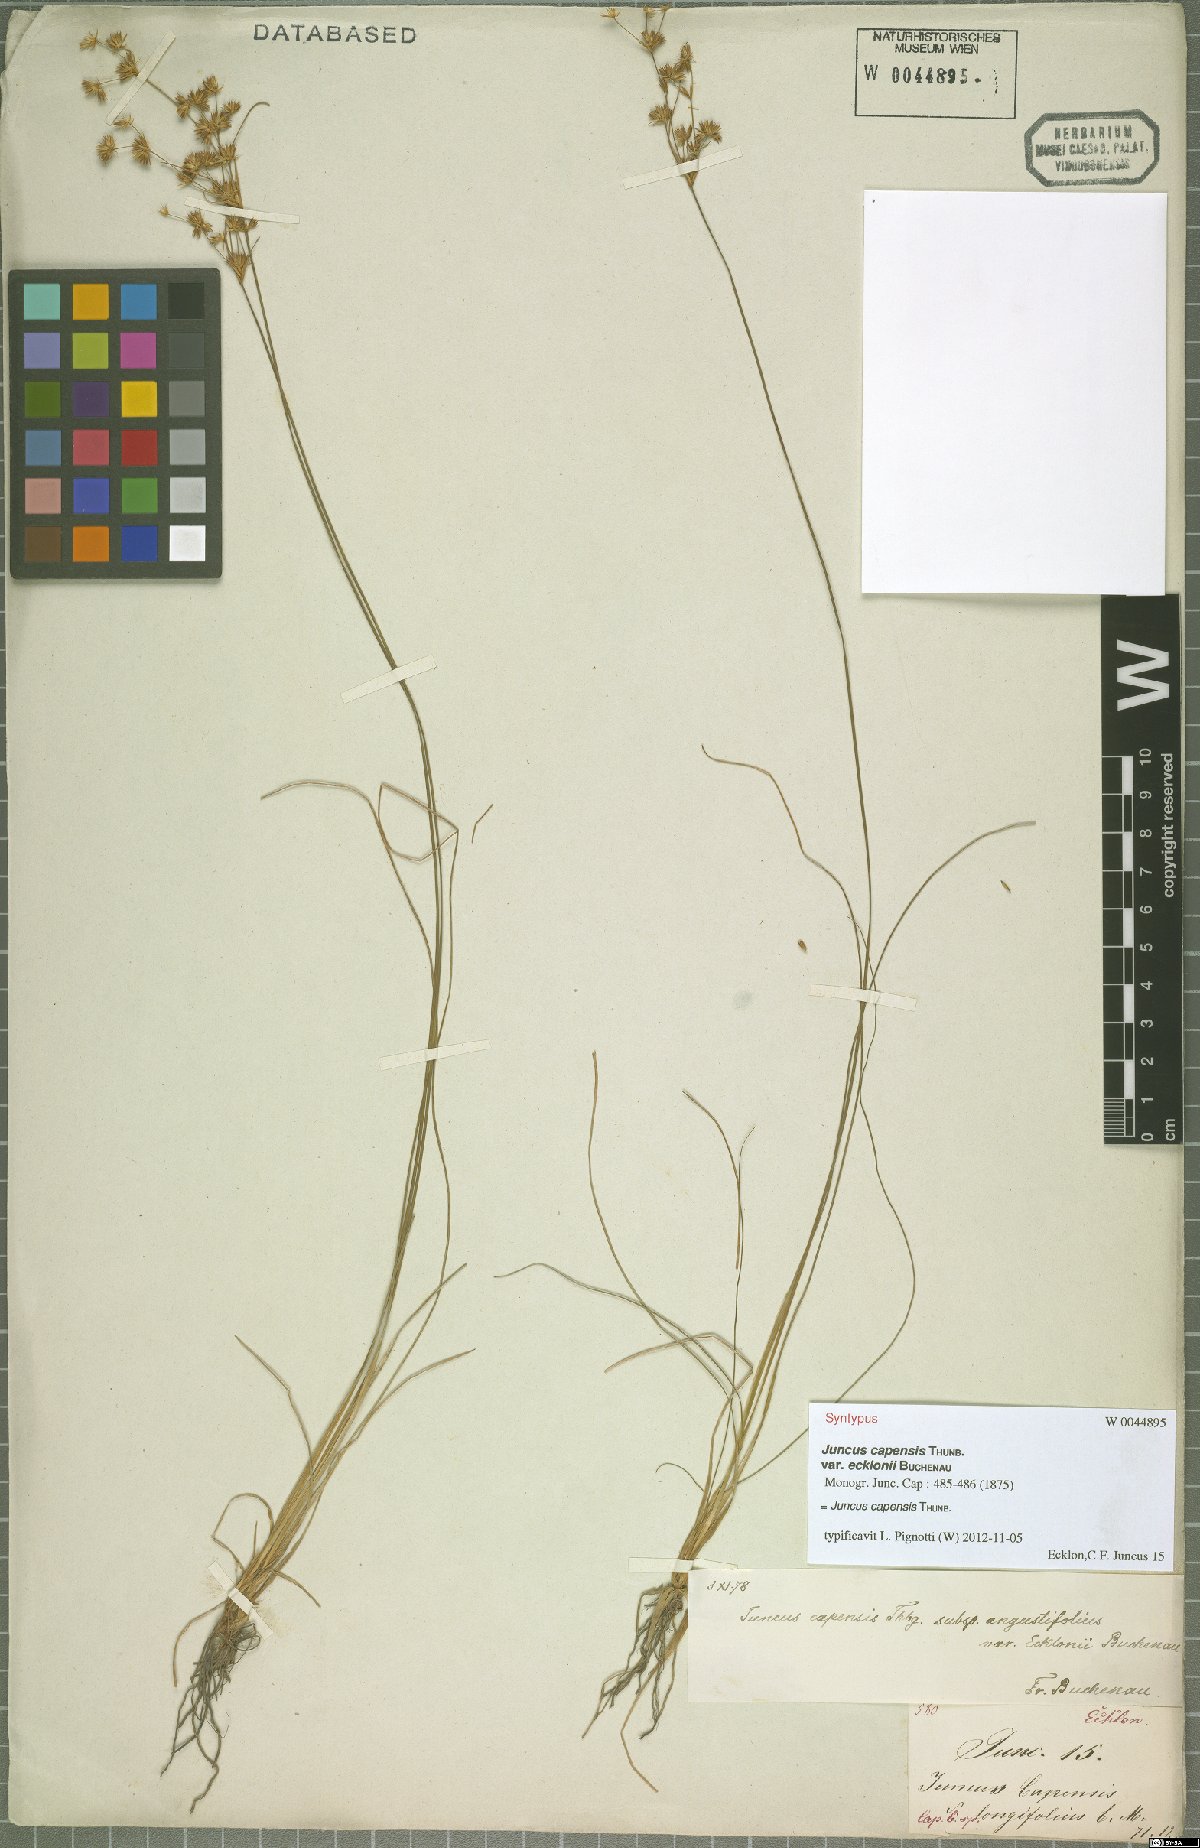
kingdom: Plantae
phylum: Tracheophyta
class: Liliopsida
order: Poales
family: Juncaceae
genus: Juncus
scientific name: Juncus capensis
